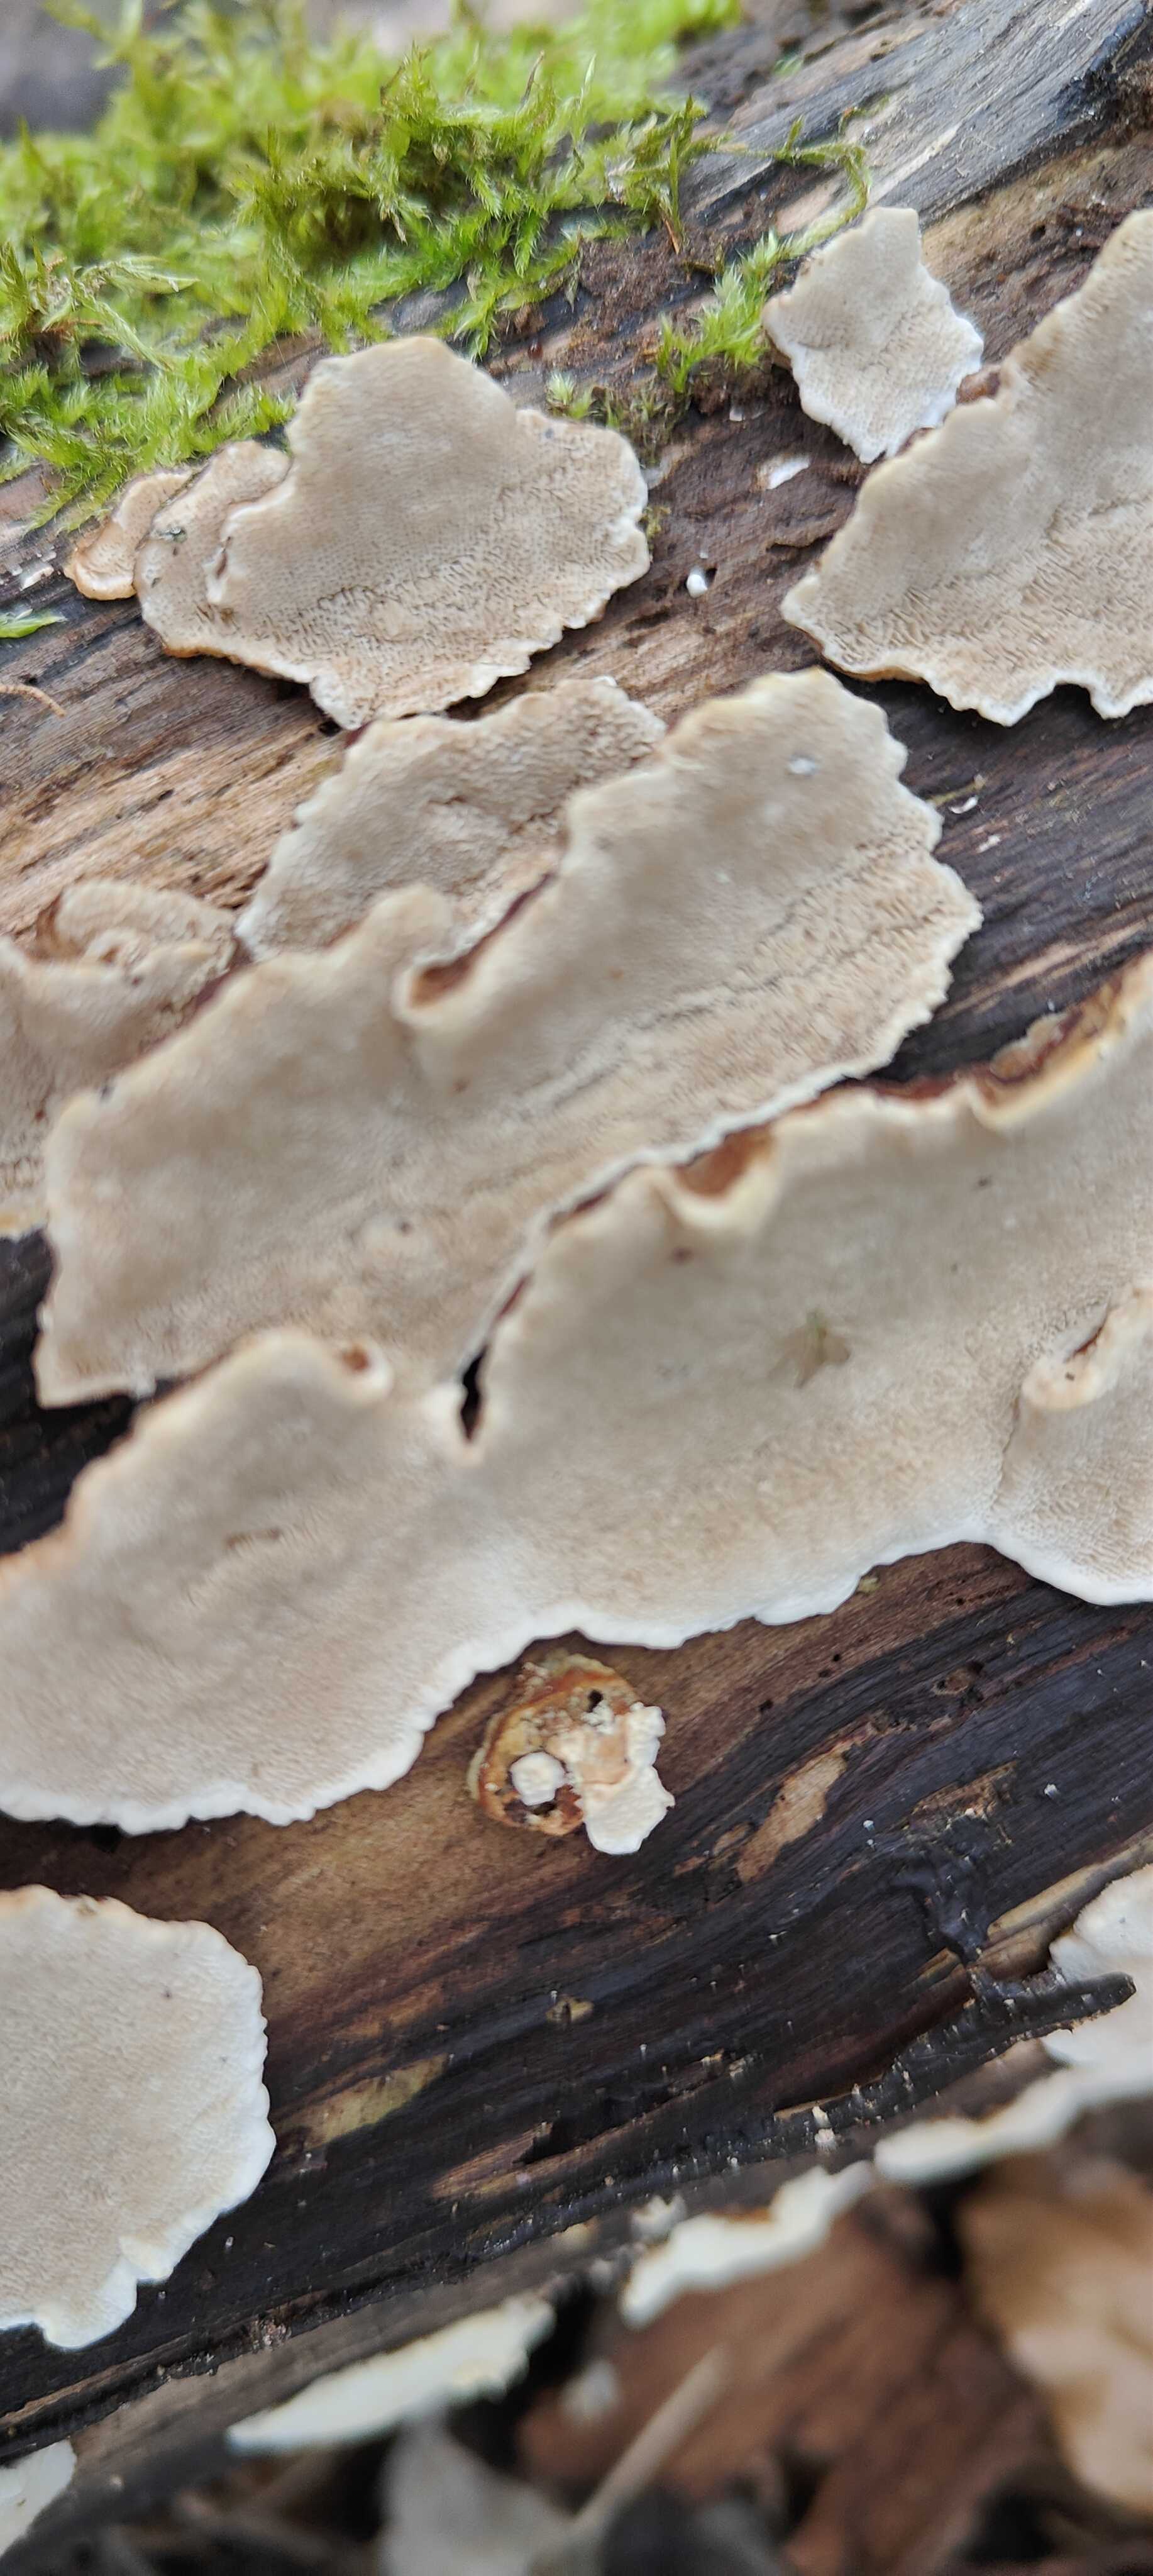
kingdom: Fungi
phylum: Basidiomycota
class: Agaricomycetes
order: Polyporales
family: Polyporaceae
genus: Trametes
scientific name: Trametes
